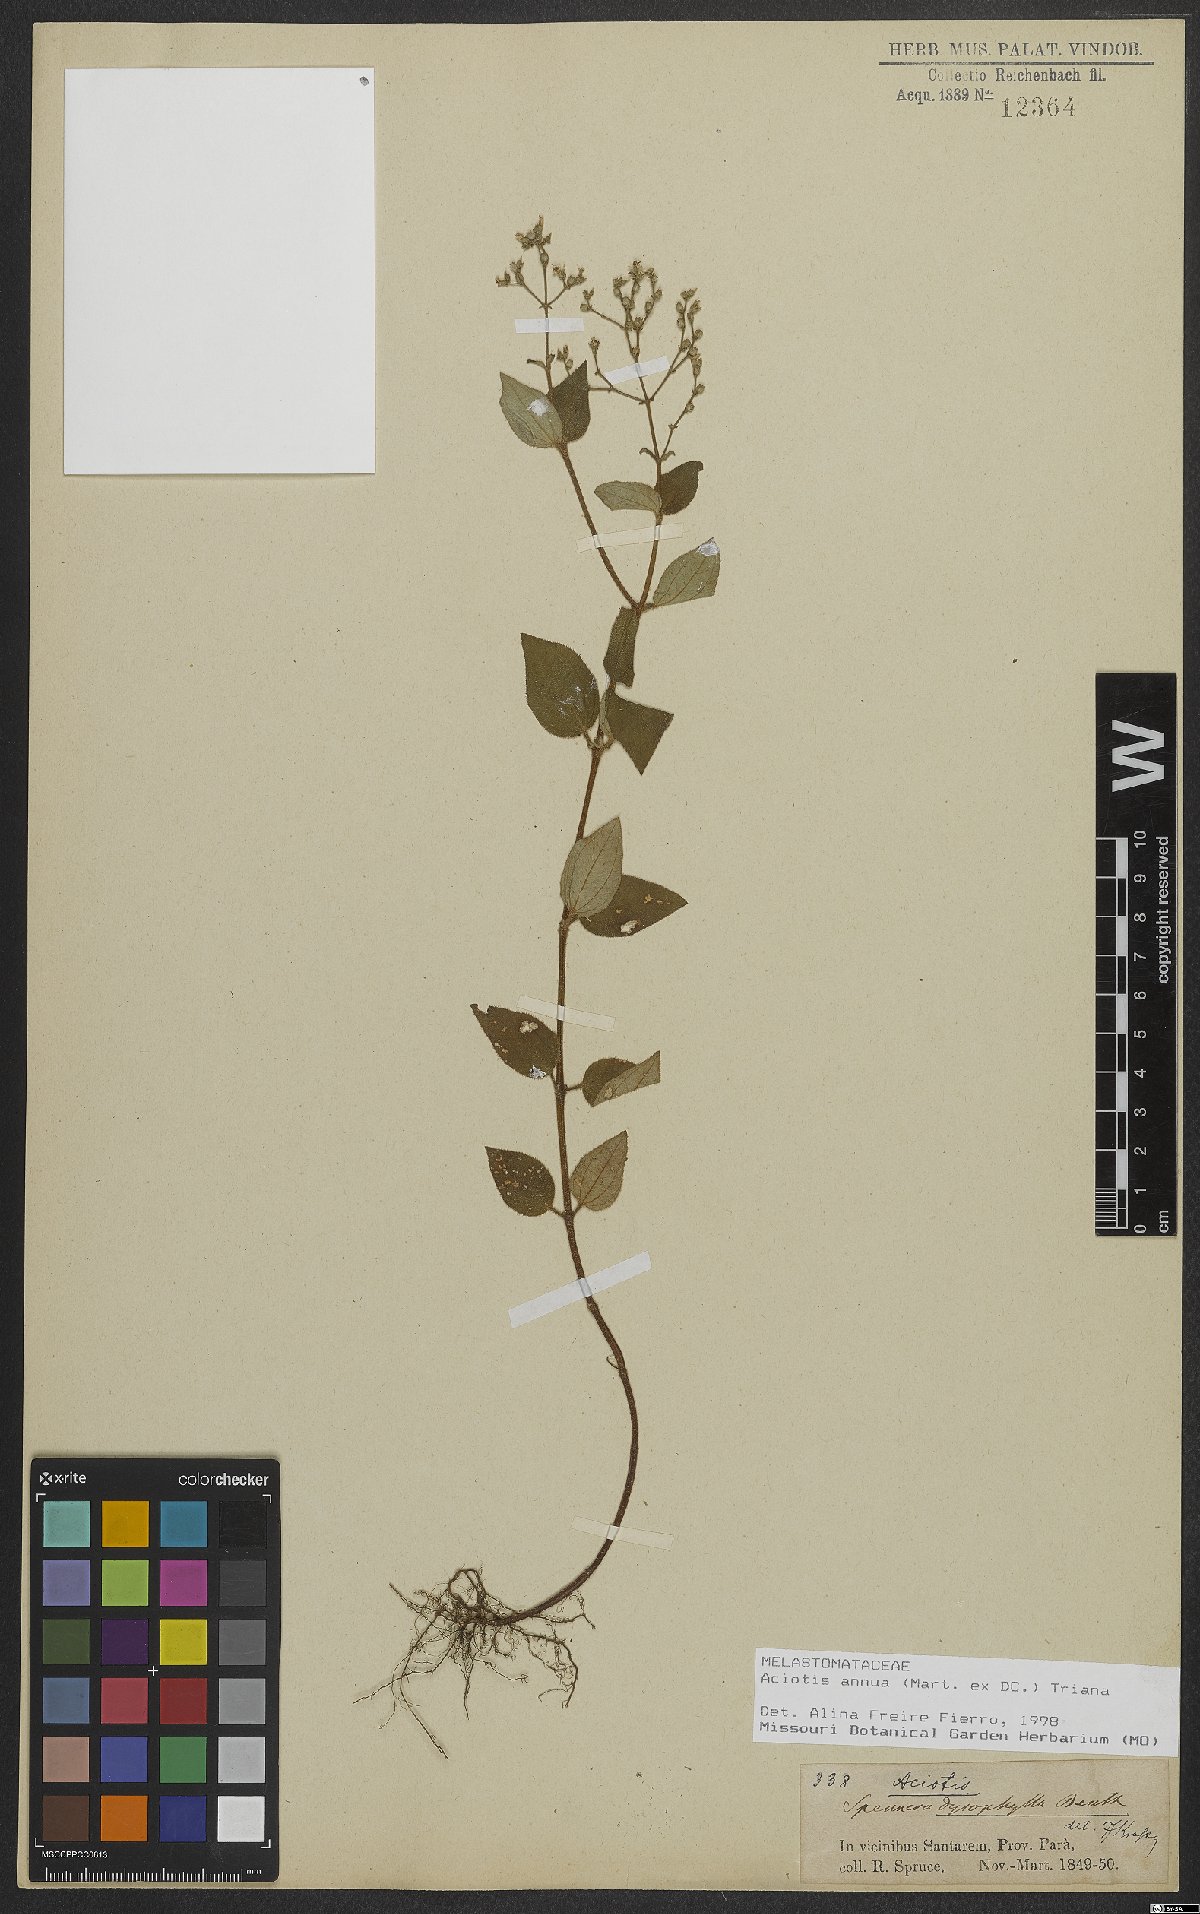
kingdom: Plantae
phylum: Tracheophyta
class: Magnoliopsida
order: Myrtales
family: Melastomataceae
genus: Aciotis
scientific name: Aciotis annua
